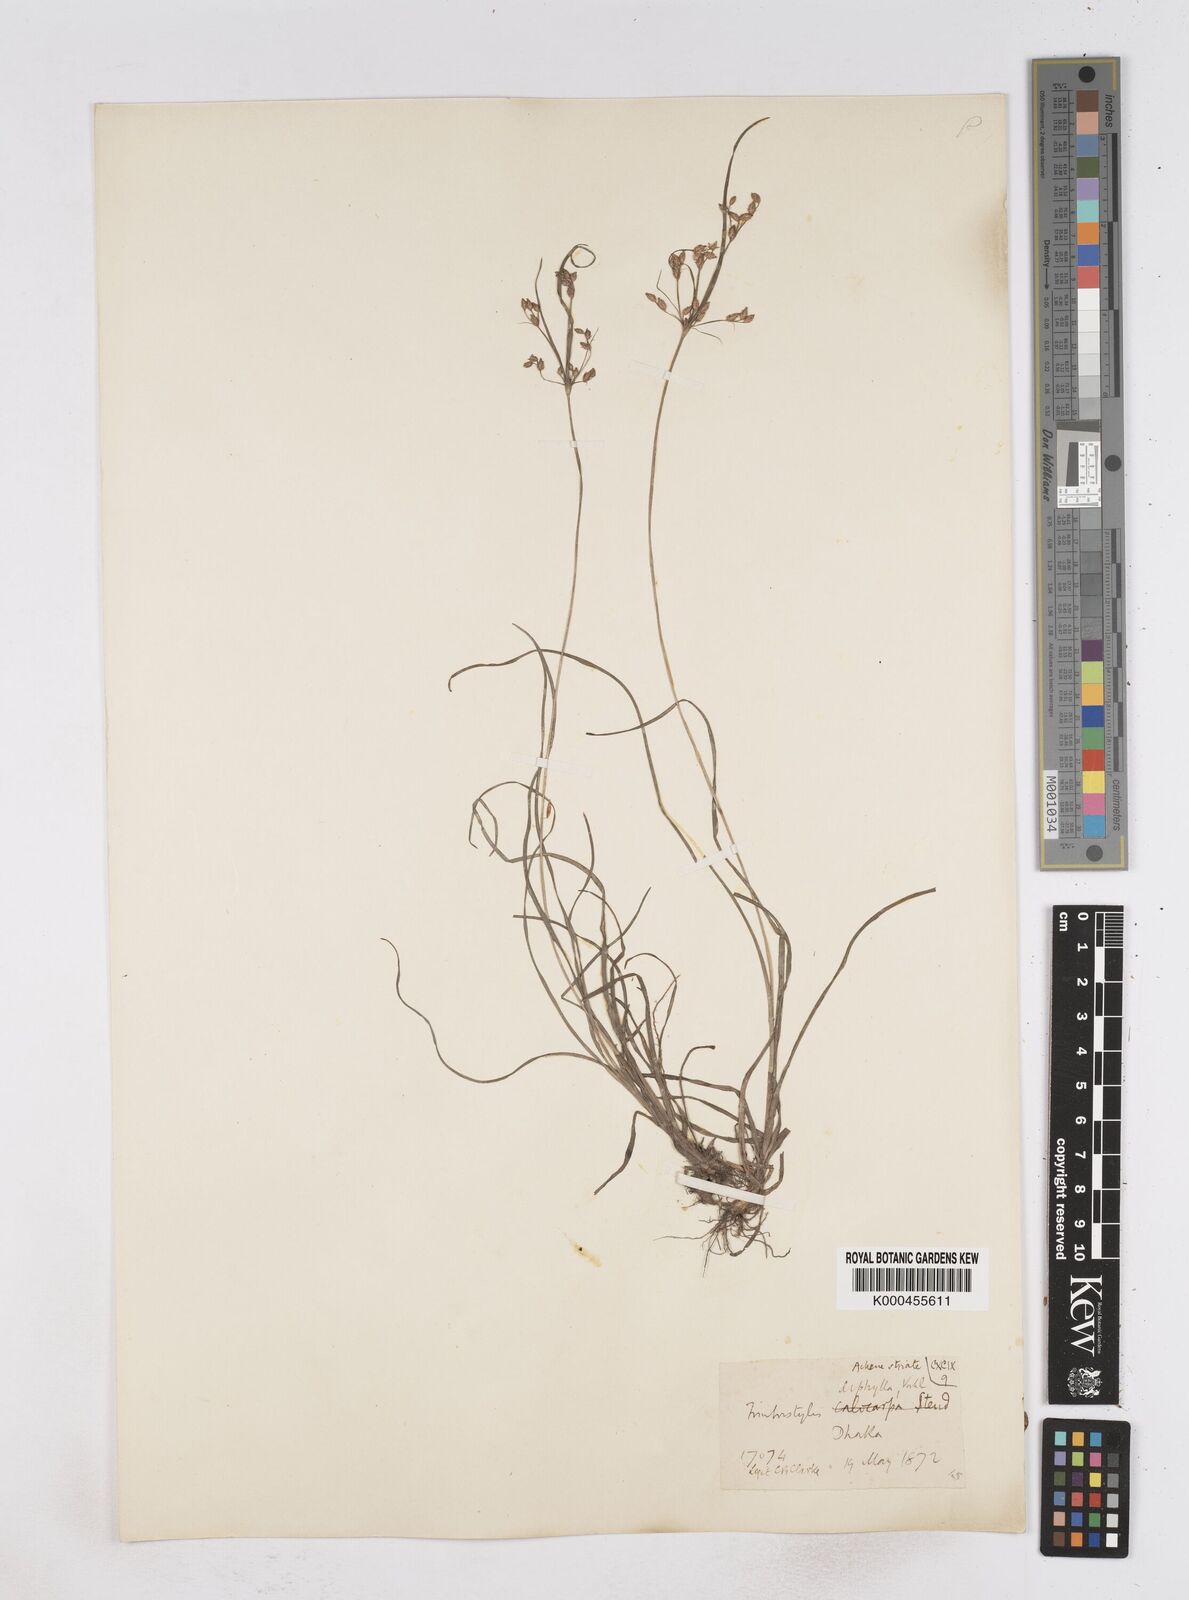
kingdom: Plantae
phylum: Tracheophyta
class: Liliopsida
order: Poales
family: Cyperaceae
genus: Fimbristylis
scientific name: Fimbristylis dichotoma
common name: Forked fimbry
